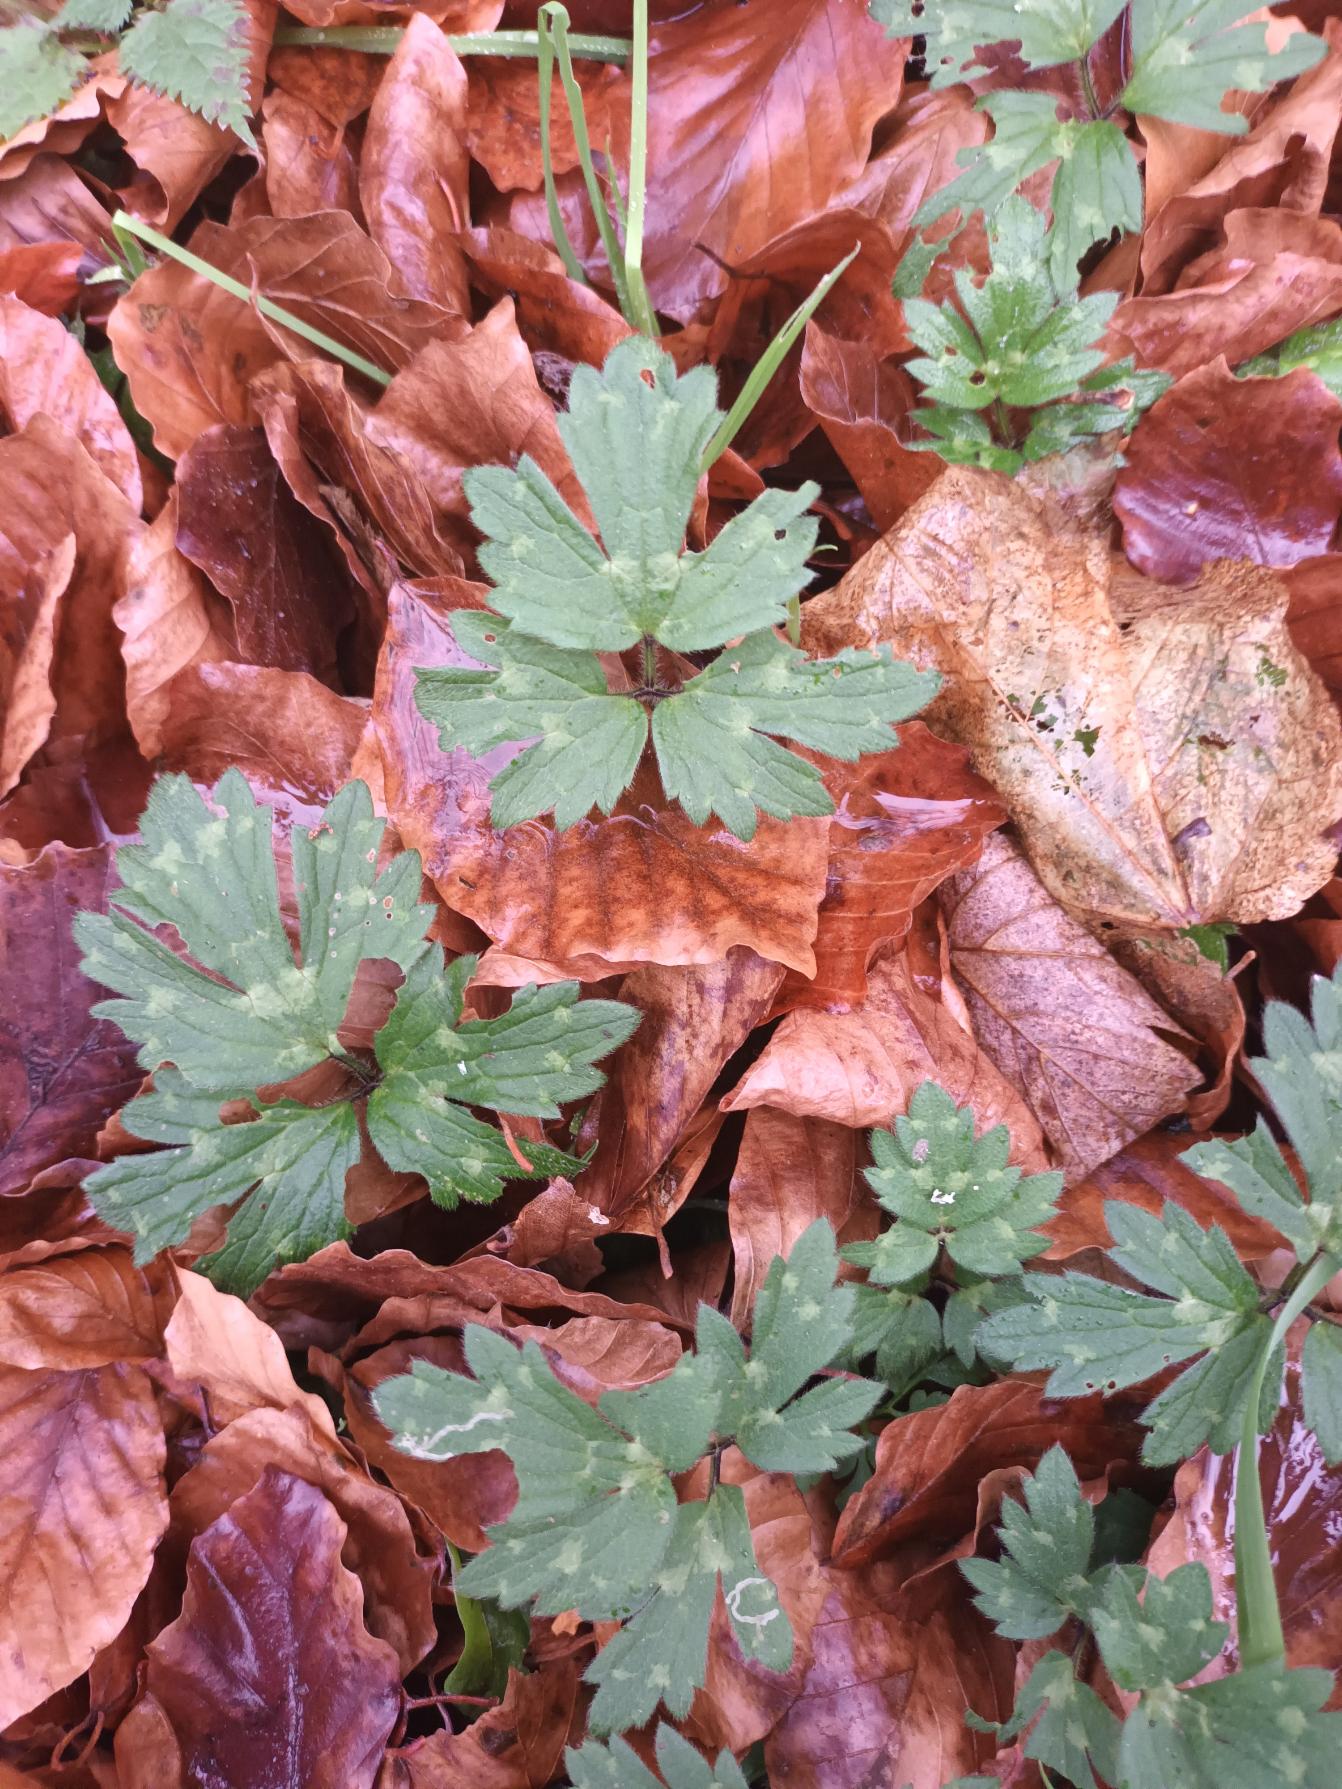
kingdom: Plantae
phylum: Tracheophyta
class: Magnoliopsida
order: Ranunculales
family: Ranunculaceae
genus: Ranunculus
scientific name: Ranunculus repens
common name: Lav ranunkel
